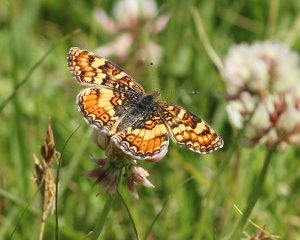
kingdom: Animalia
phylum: Arthropoda
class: Insecta
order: Lepidoptera
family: Nymphalidae
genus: Phyciodes
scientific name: Phyciodes tharos
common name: Field Crescent
